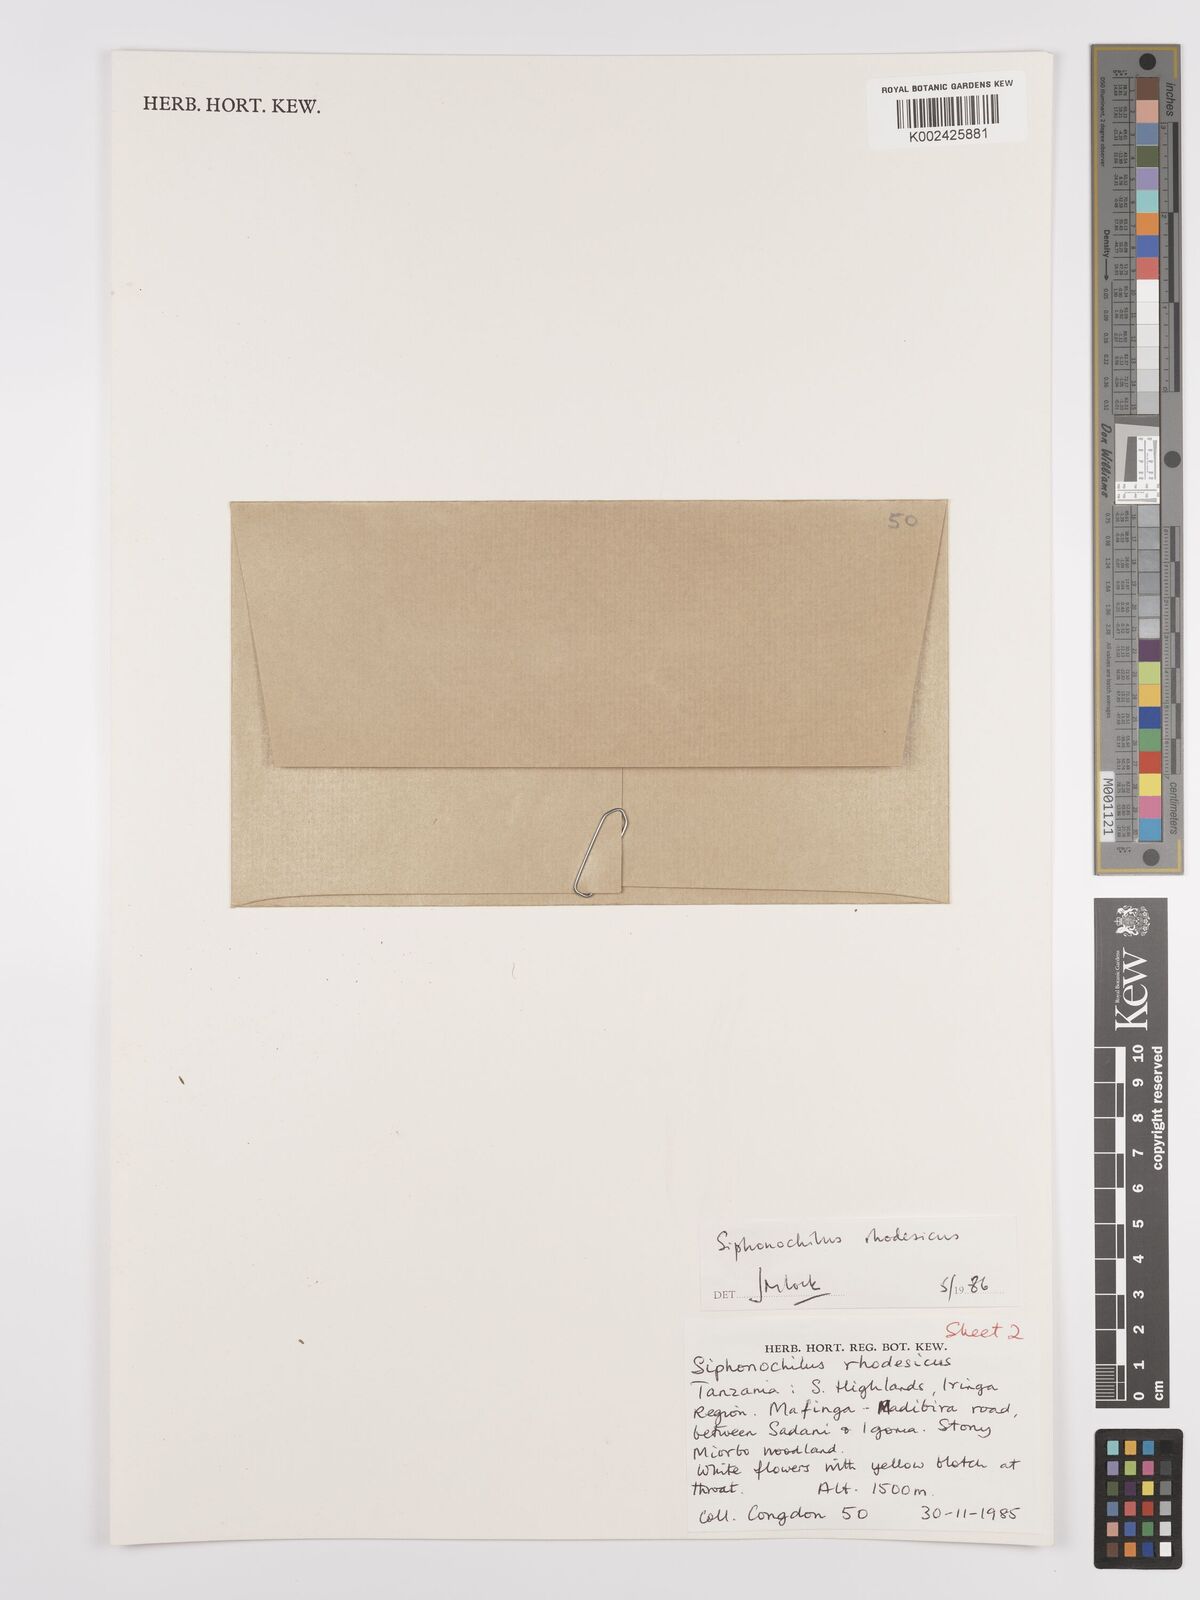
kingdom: Plantae
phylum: Tracheophyta
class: Liliopsida
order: Zingiberales
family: Zingiberaceae
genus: Siphonochilus
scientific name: Siphonochilus rhodesicus
